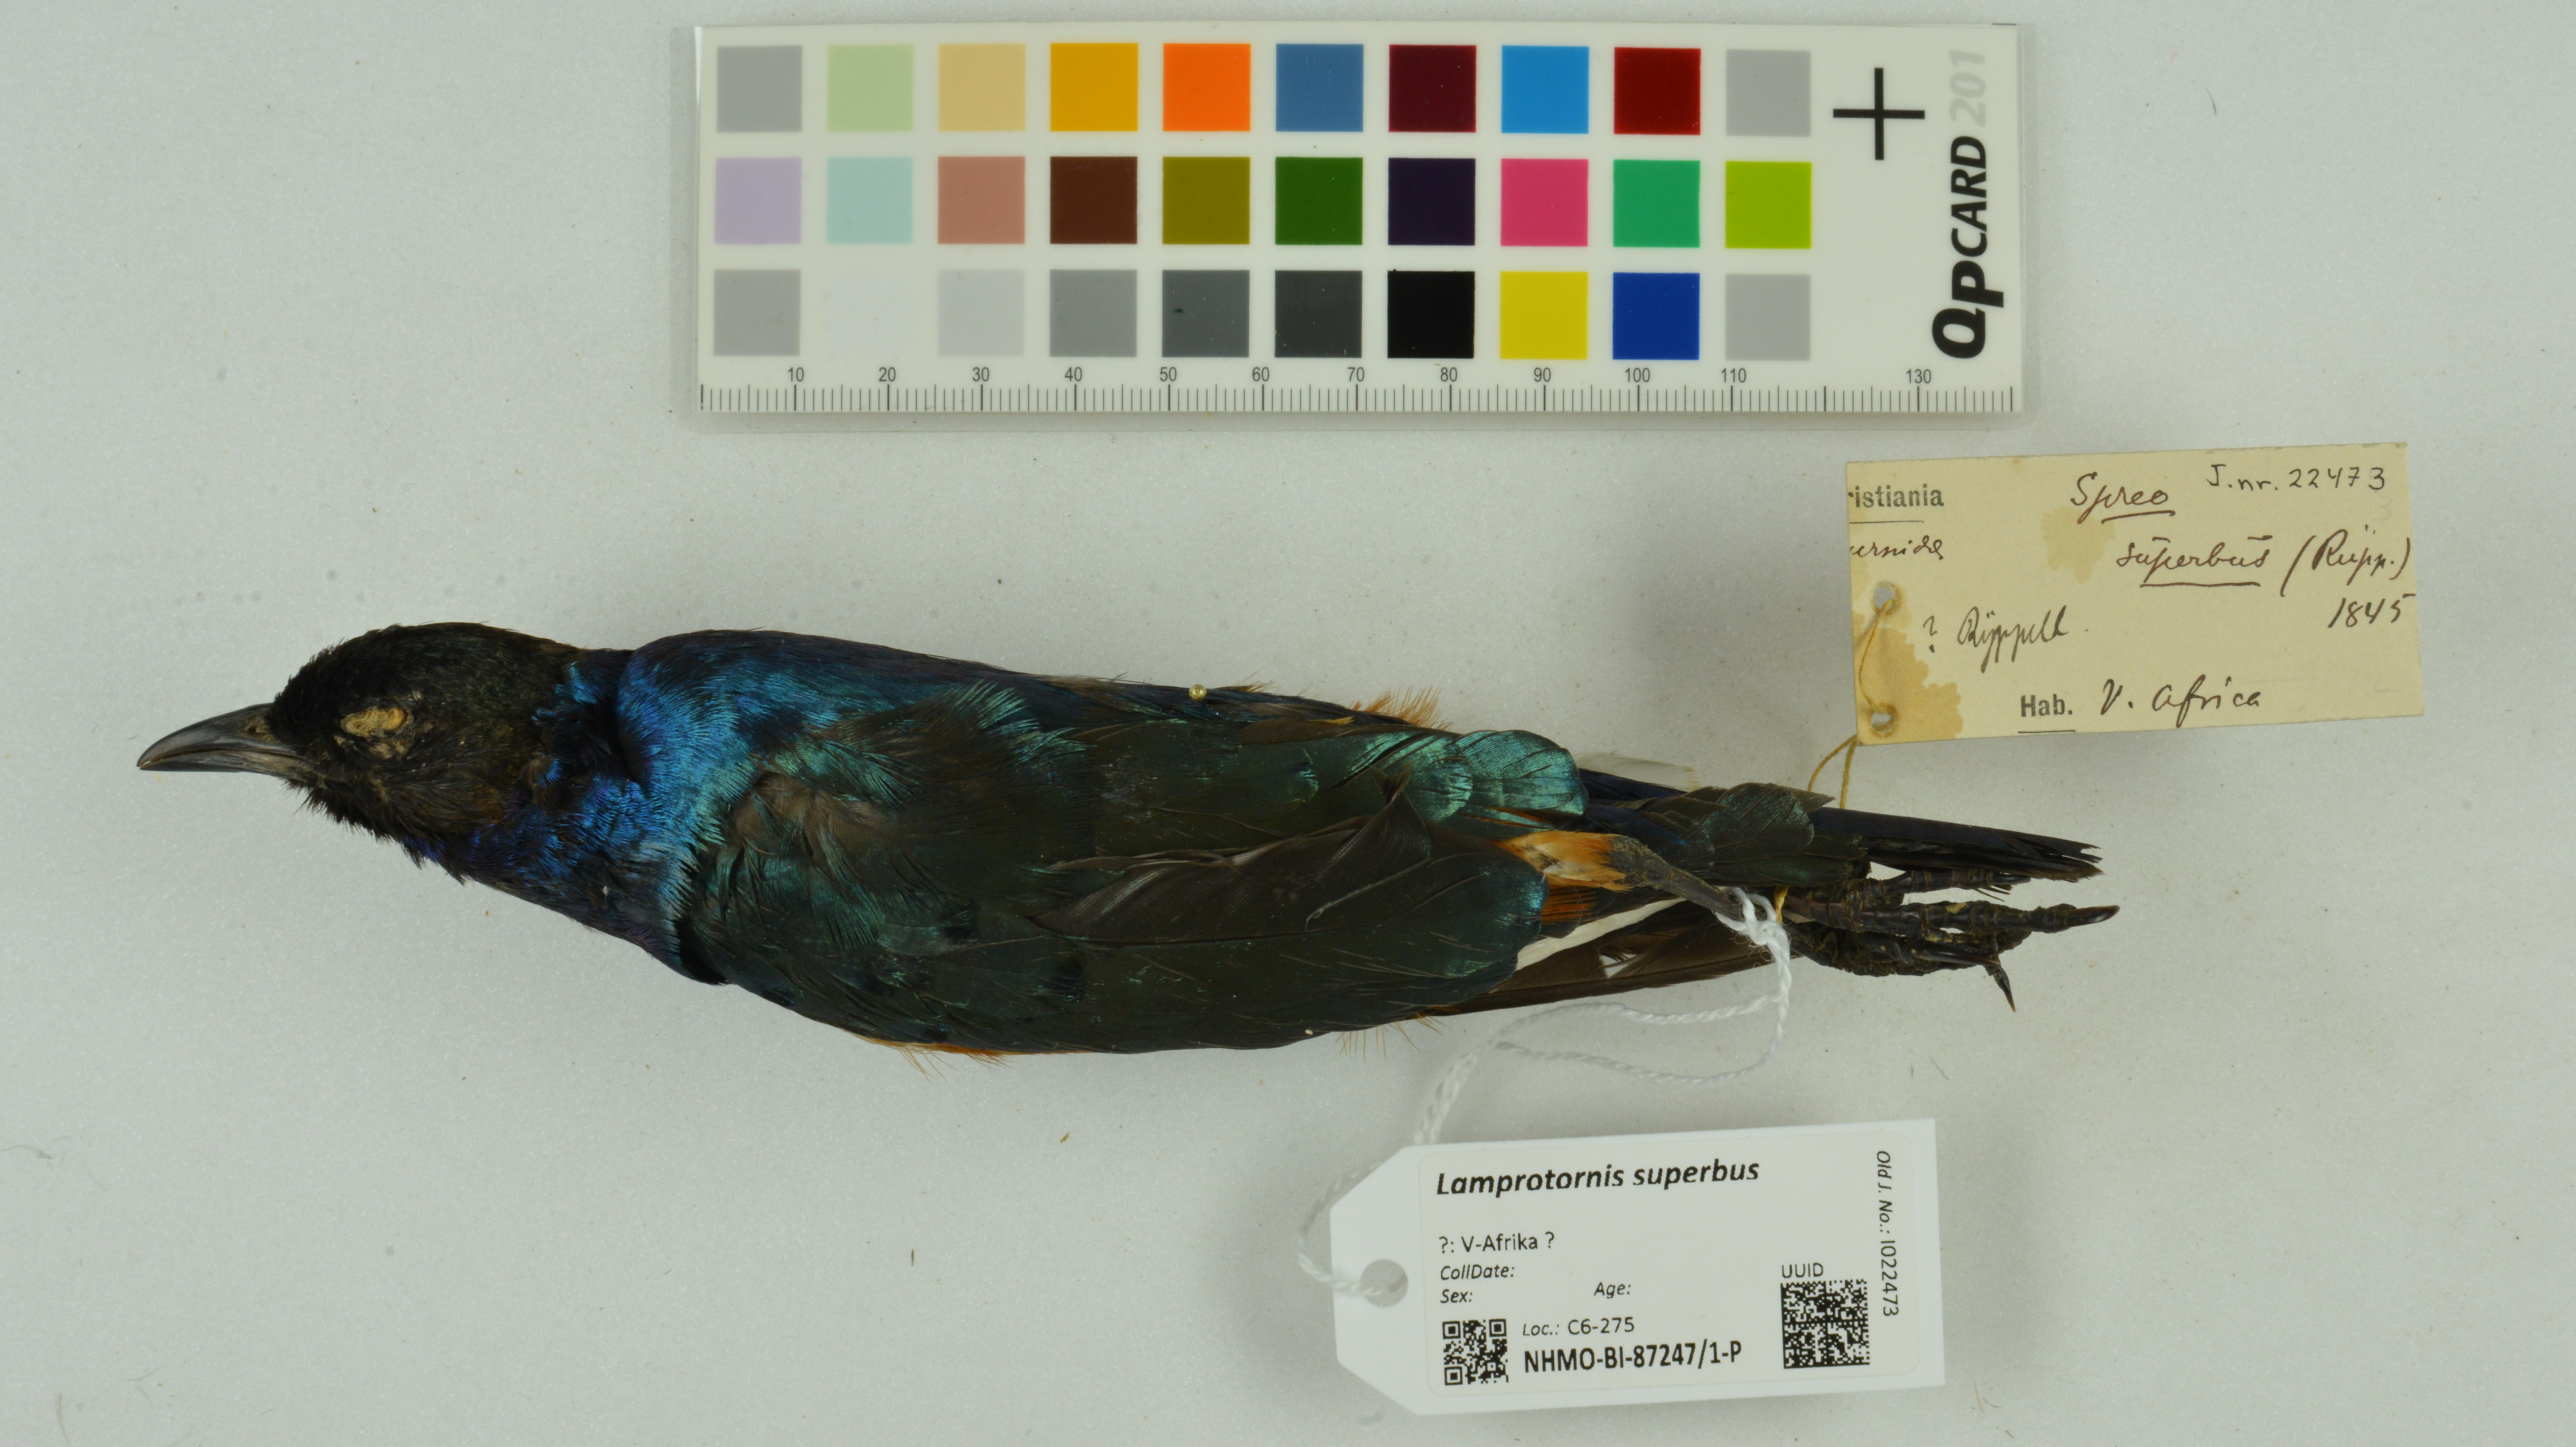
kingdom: Animalia
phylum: Chordata
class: Aves
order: Passeriformes
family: Sturnidae
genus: Lamprotornis
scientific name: Lamprotornis superbus
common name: Superb starling
